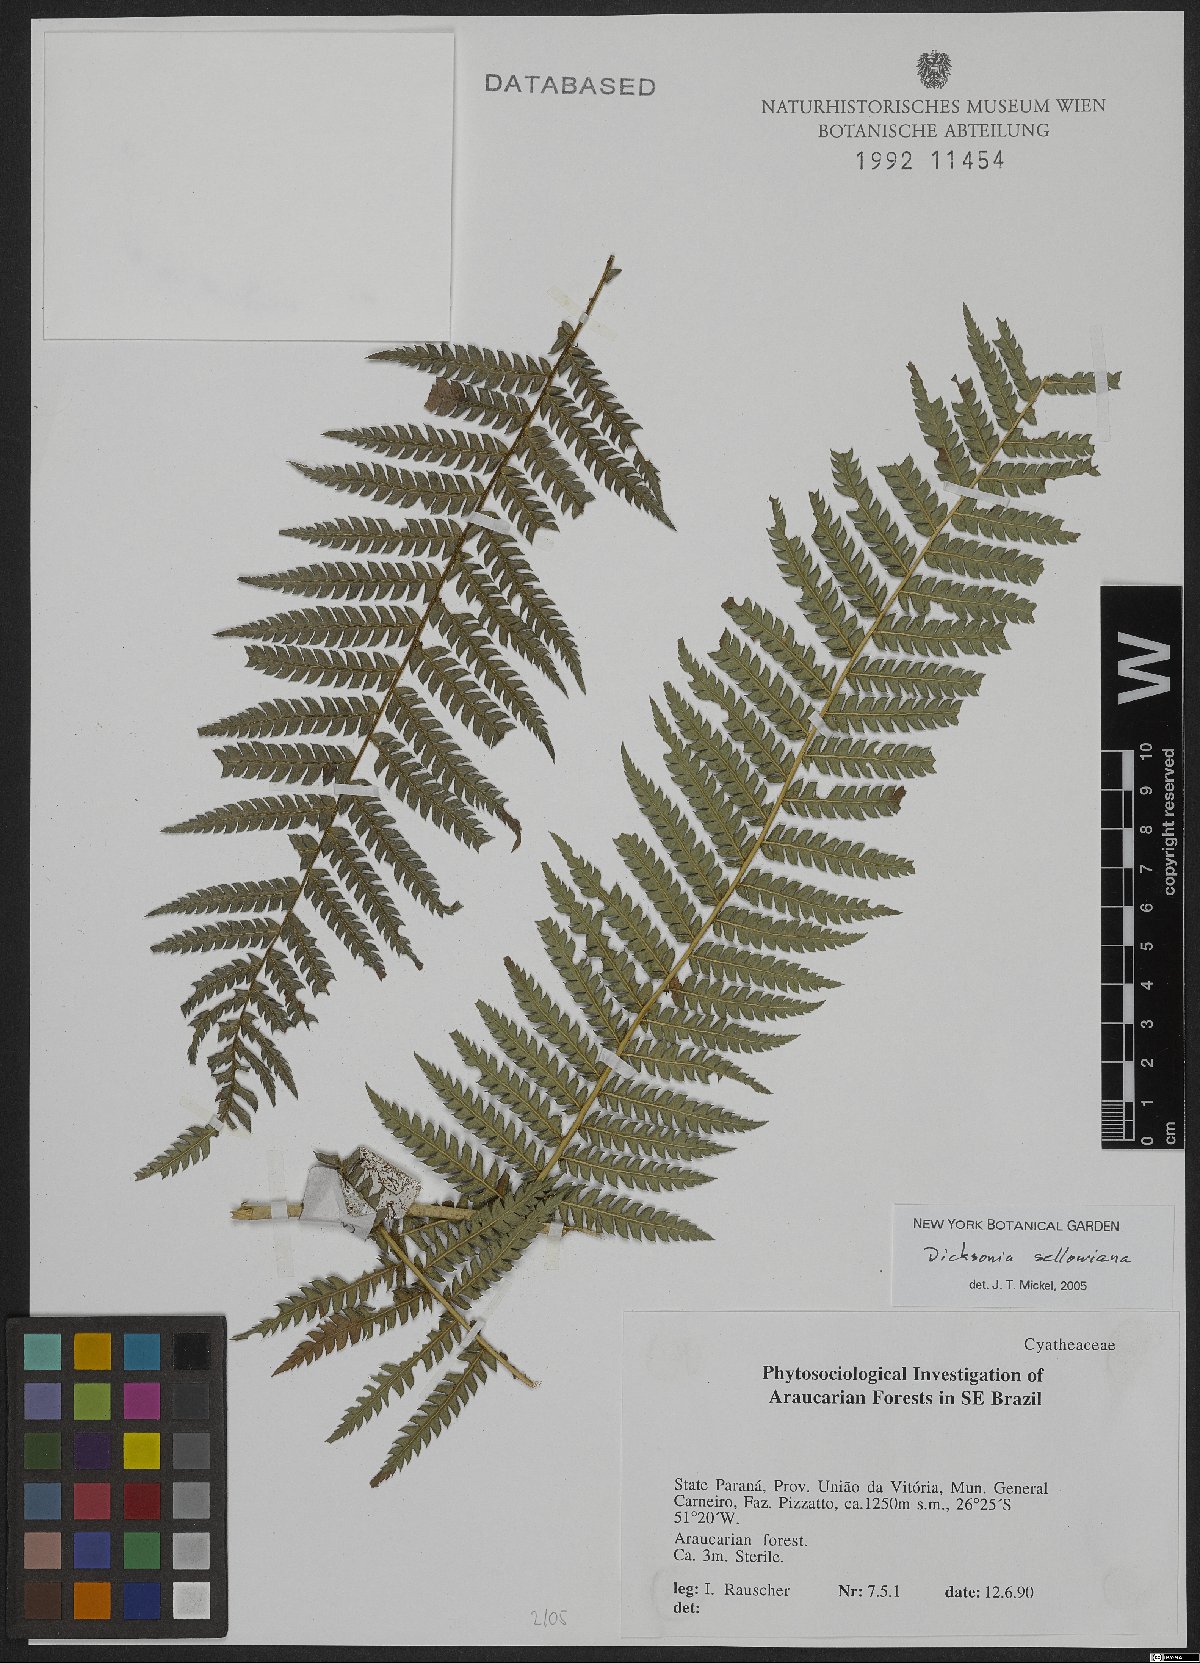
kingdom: Plantae
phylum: Tracheophyta
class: Polypodiopsida
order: Cyatheales
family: Dicksoniaceae
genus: Dicksonia
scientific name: Dicksonia sellowiana
